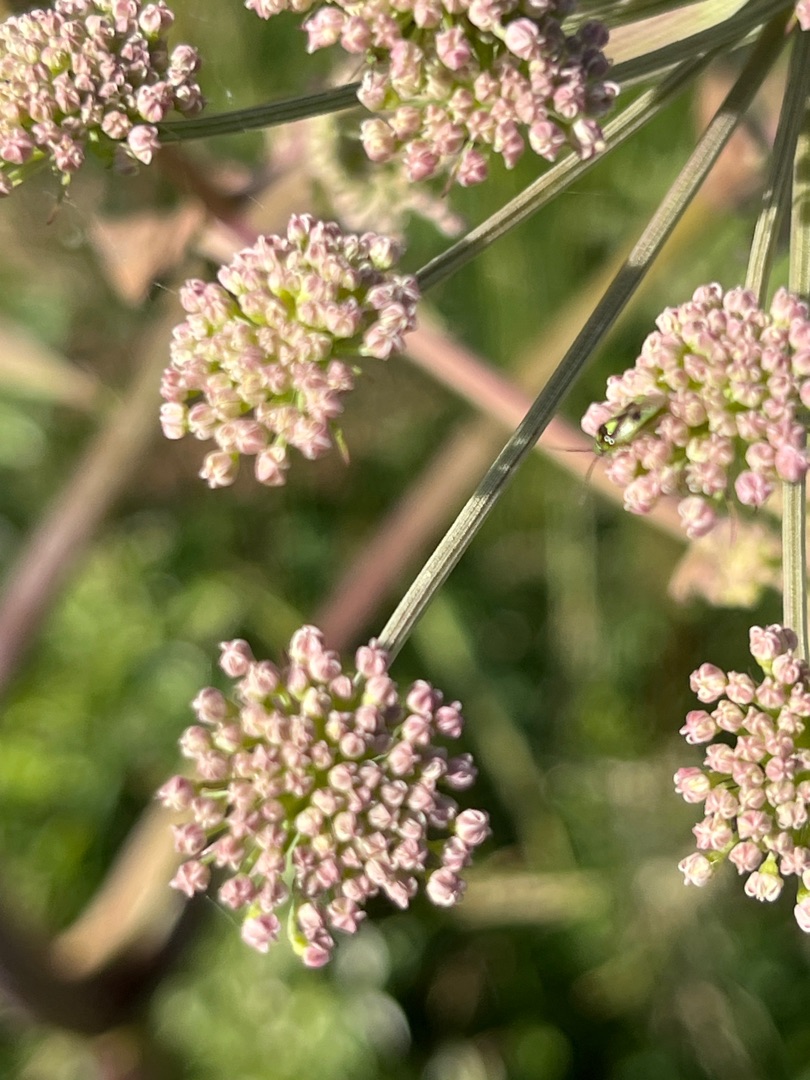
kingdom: Plantae
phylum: Tracheophyta
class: Magnoliopsida
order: Apiales
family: Apiaceae
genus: Angelica
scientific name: Angelica sylvestris
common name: Angelik
